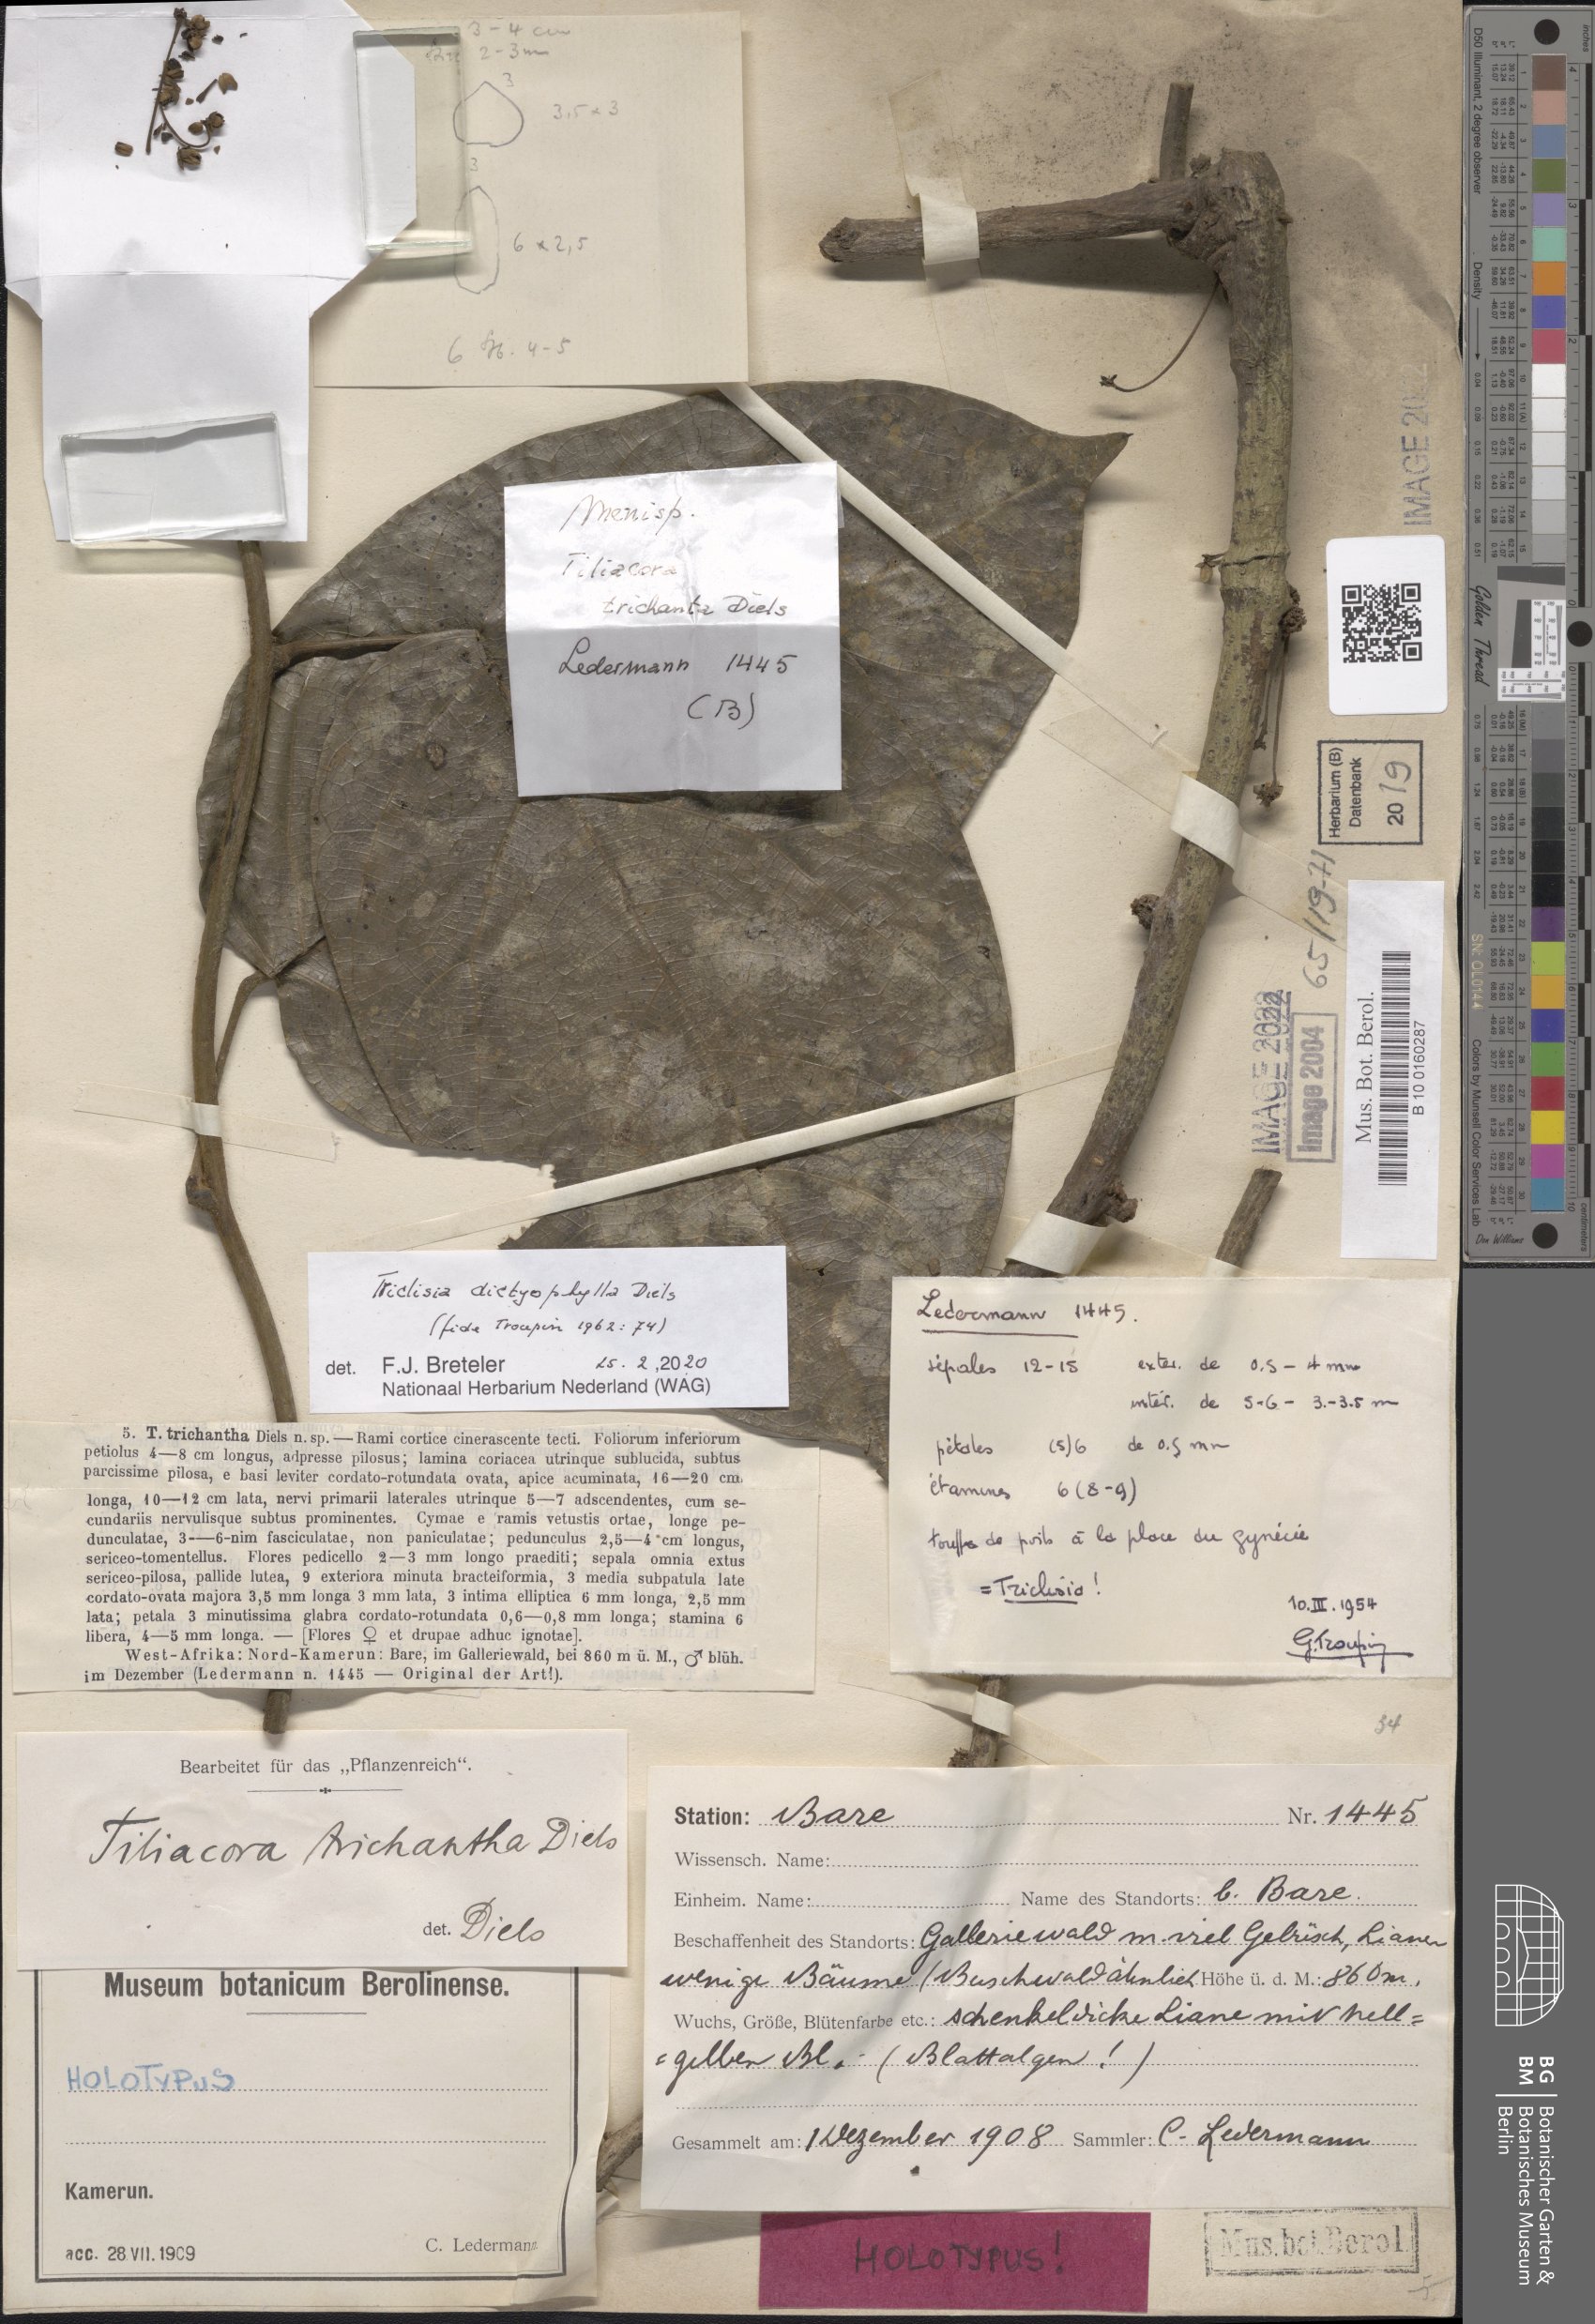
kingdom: Plantae
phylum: Tracheophyta
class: Magnoliopsida
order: Ranunculales
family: Menispermaceae
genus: Triclisia
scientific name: Triclisia dictyophylla
